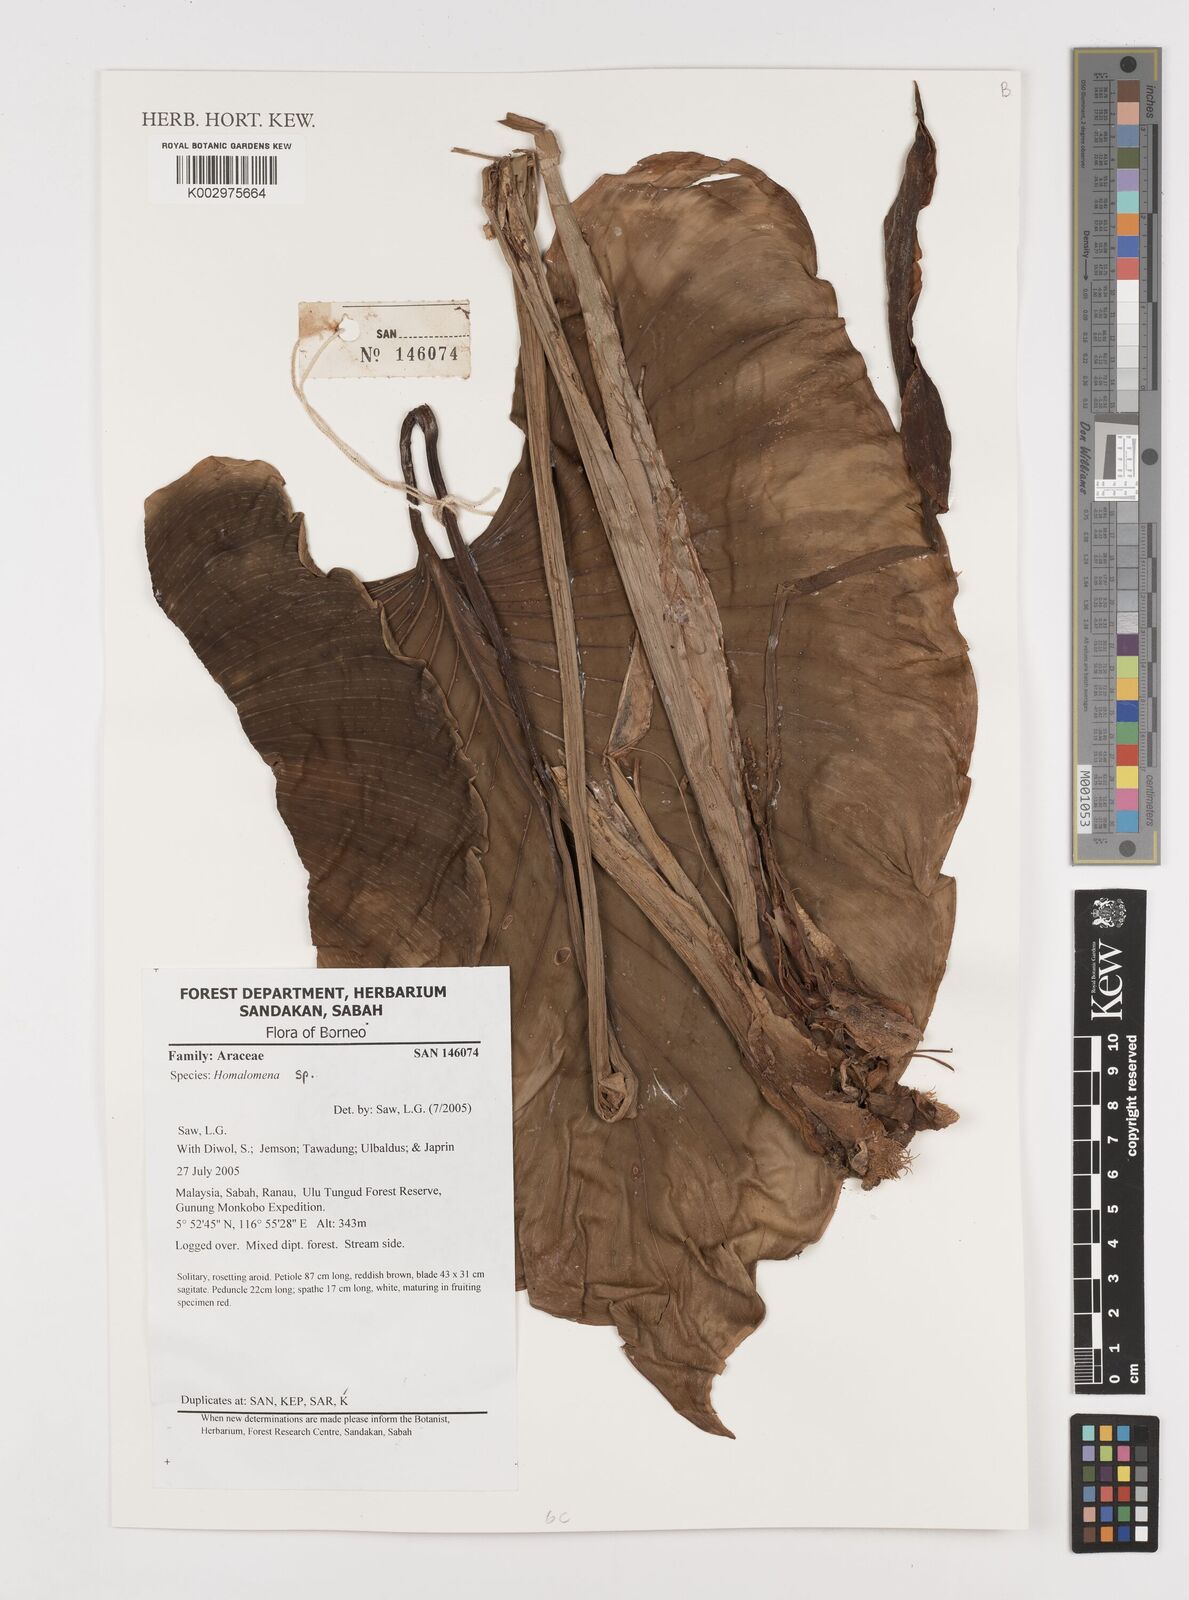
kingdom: Plantae
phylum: Tracheophyta
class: Liliopsida
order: Alismatales
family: Araceae
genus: Homalomena
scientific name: Homalomena
